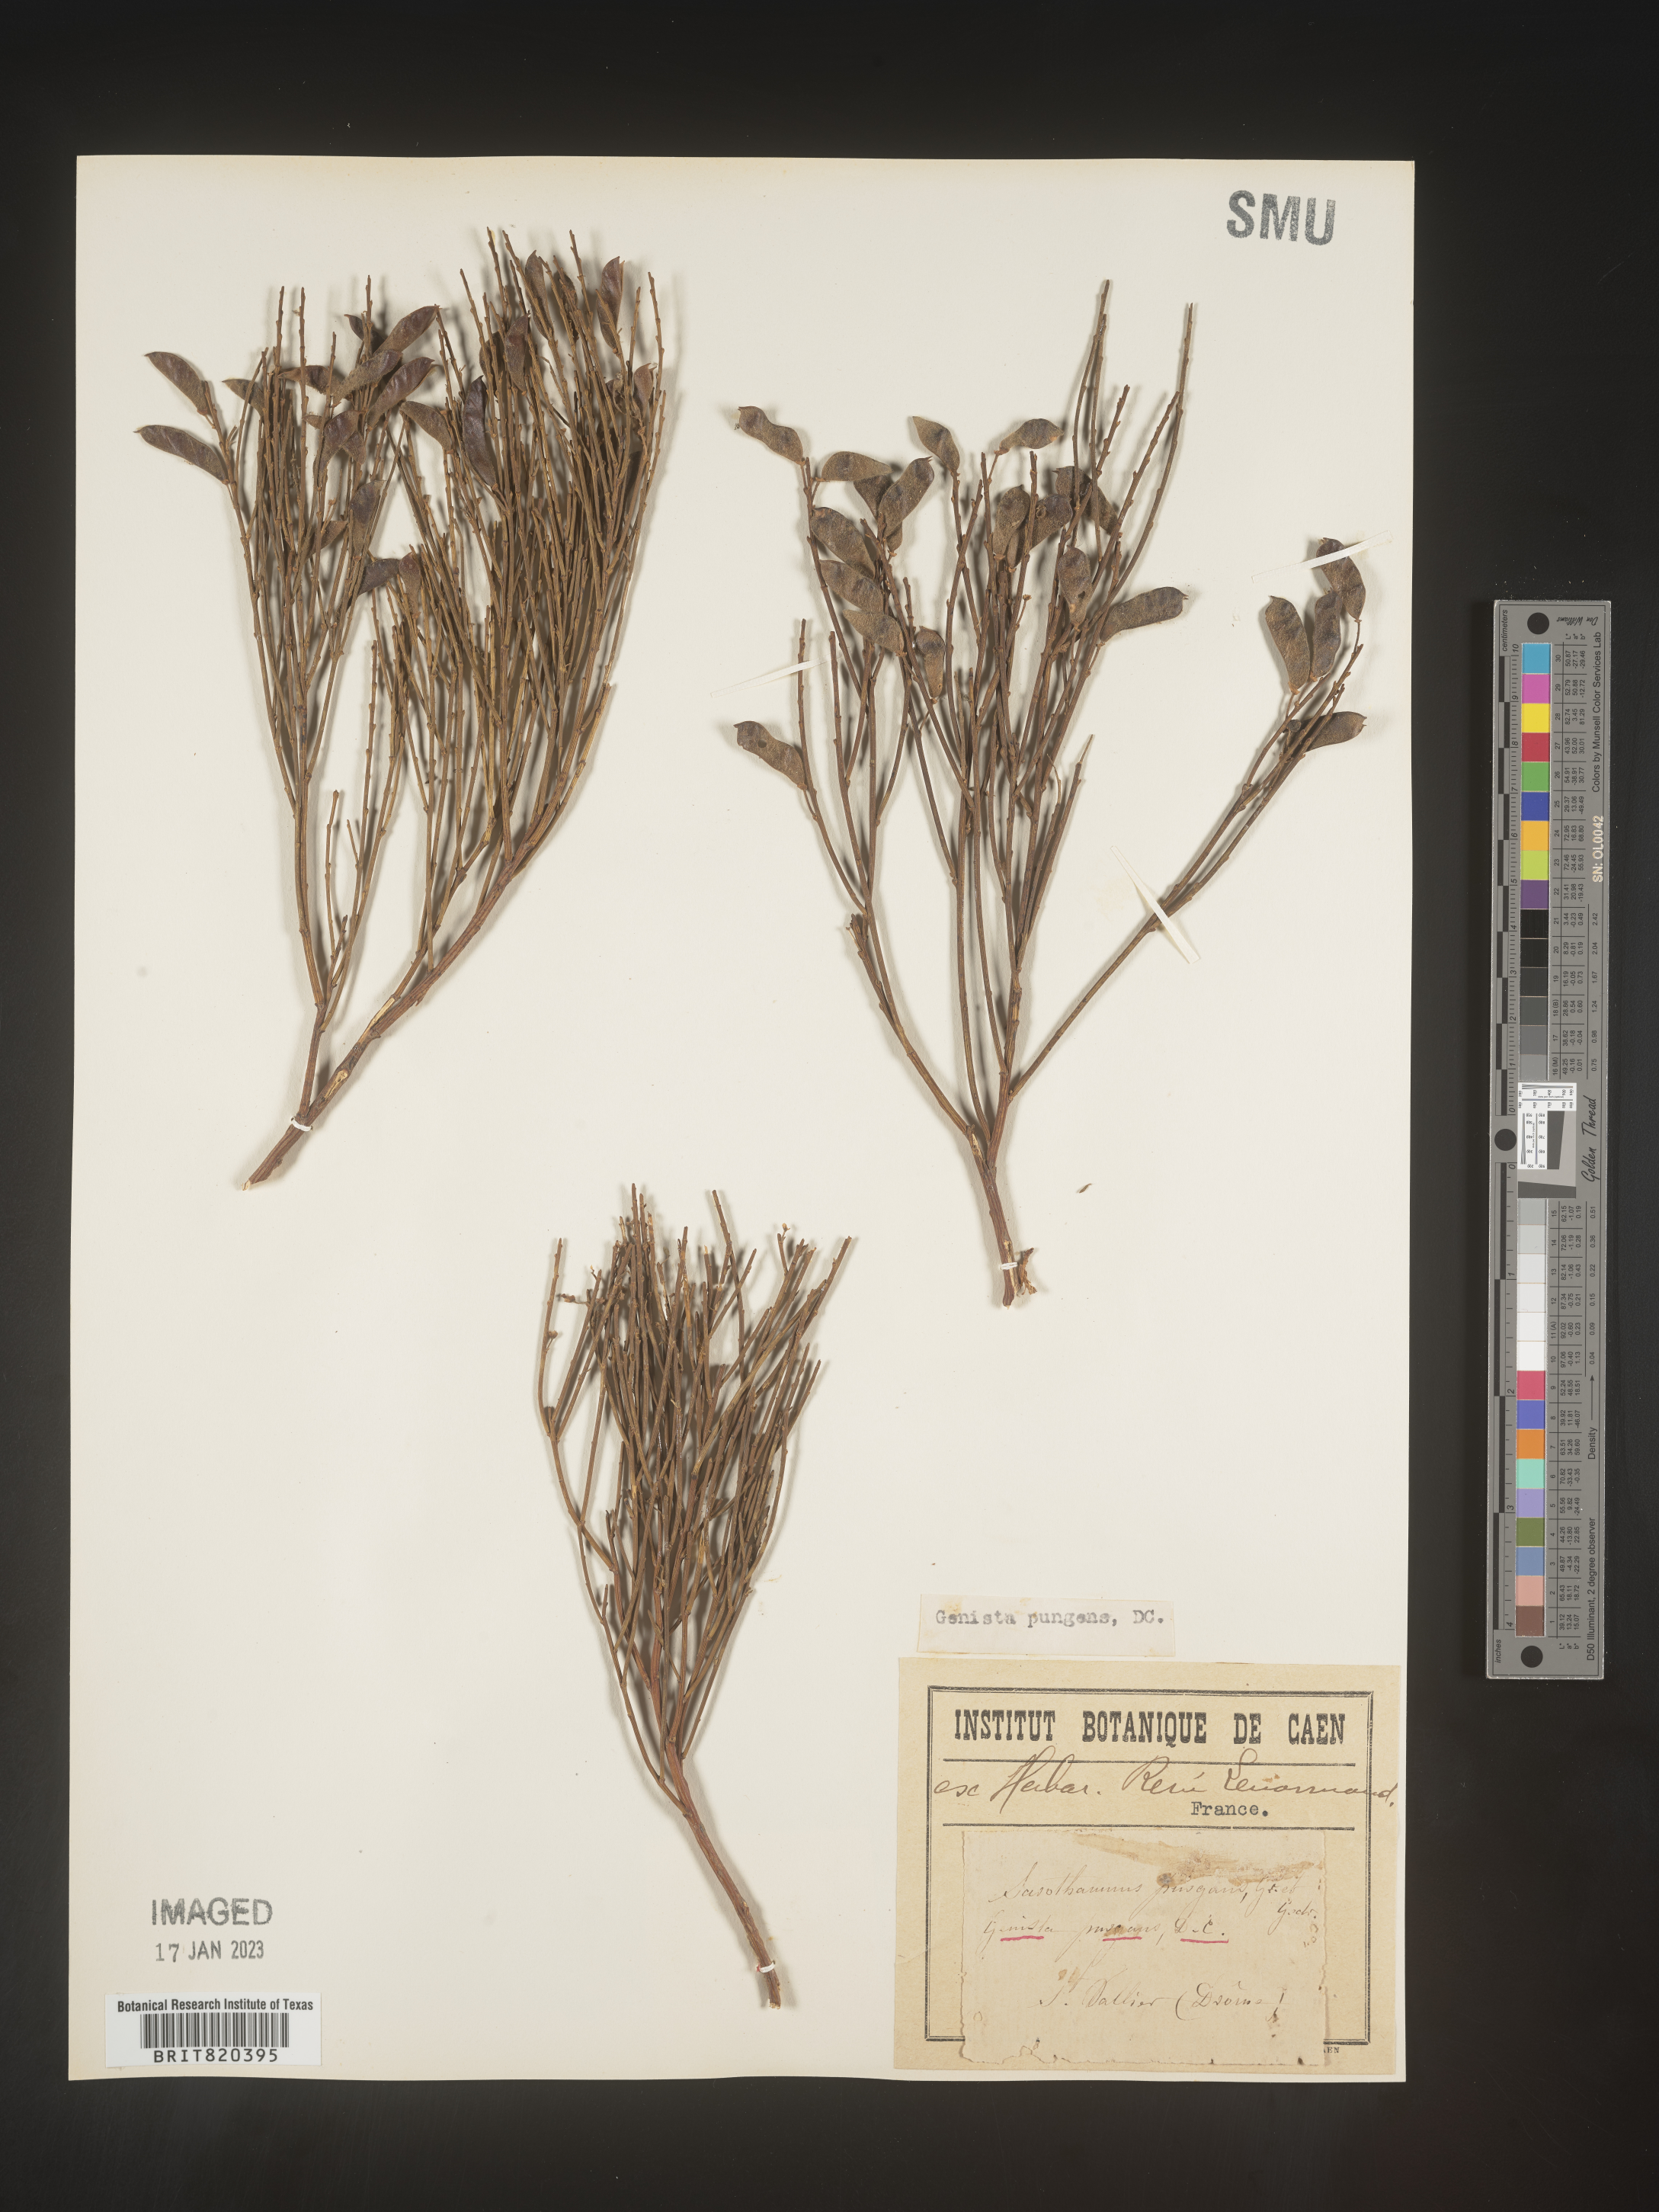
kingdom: Plantae
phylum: Tracheophyta
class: Magnoliopsida
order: Fabales
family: Fabaceae
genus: Genista
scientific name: Genista
